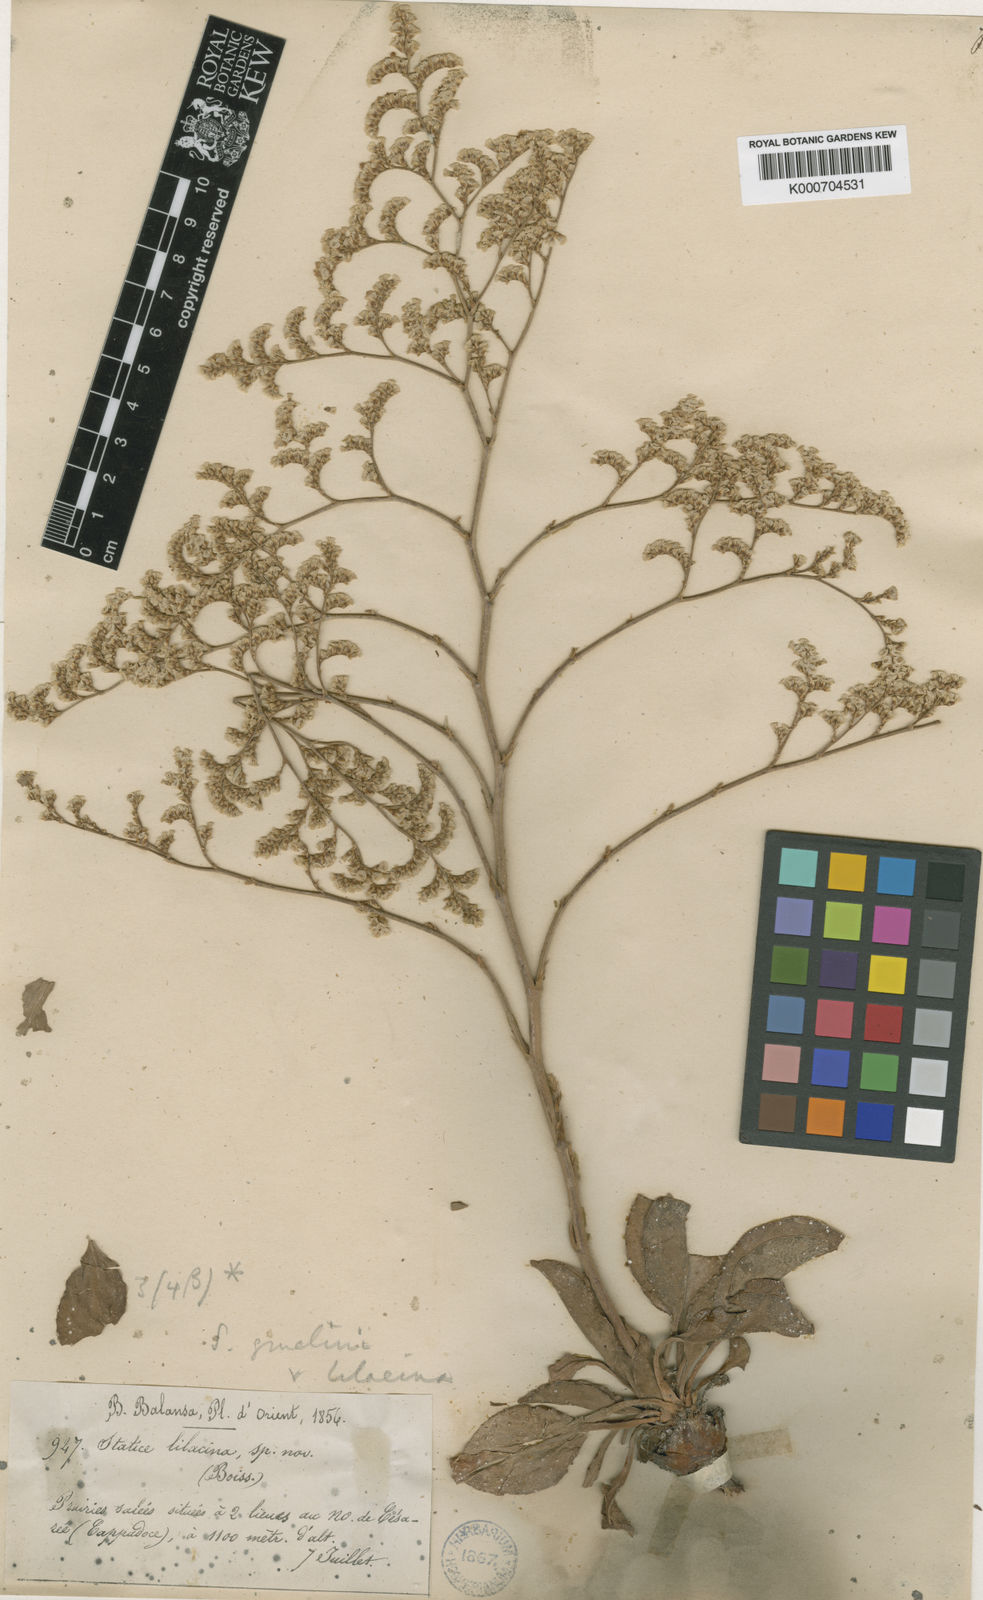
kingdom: Plantae
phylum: Tracheophyta
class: Magnoliopsida
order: Caryophyllales
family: Plumbaginaceae
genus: Limonium
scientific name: Limonium gmelini
